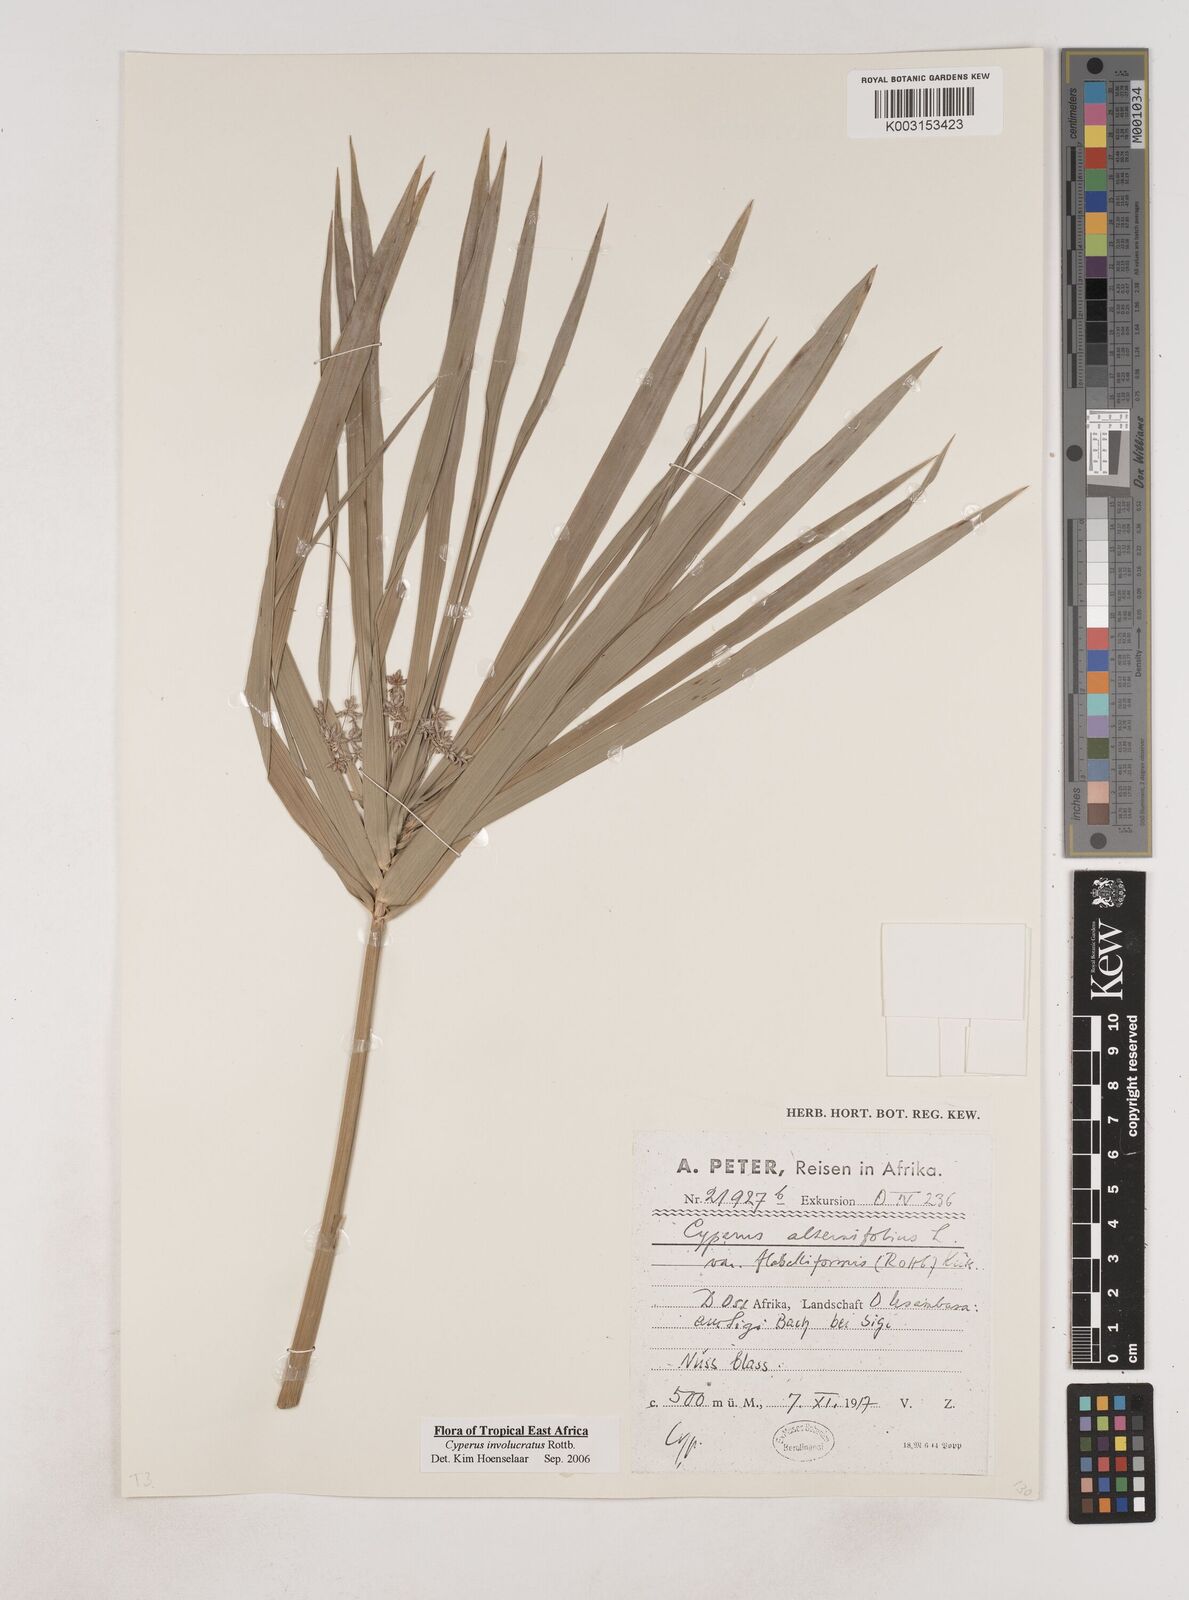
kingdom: Plantae
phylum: Tracheophyta
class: Liliopsida
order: Poales
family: Cyperaceae
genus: Cyperus
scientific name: Cyperus alternifolius
